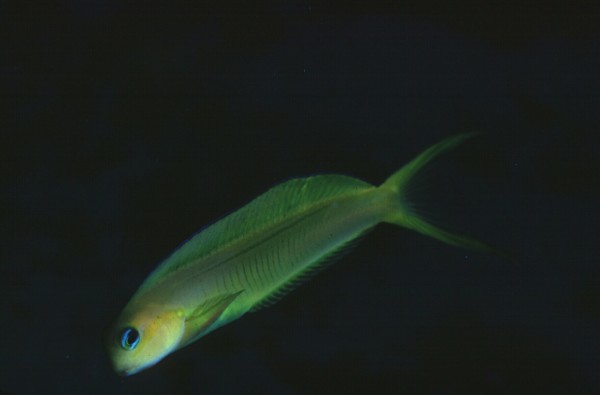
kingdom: Animalia
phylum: Chordata
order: Perciformes
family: Blenniidae
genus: Ecsenius
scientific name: Ecsenius midas
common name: Golden blenny
